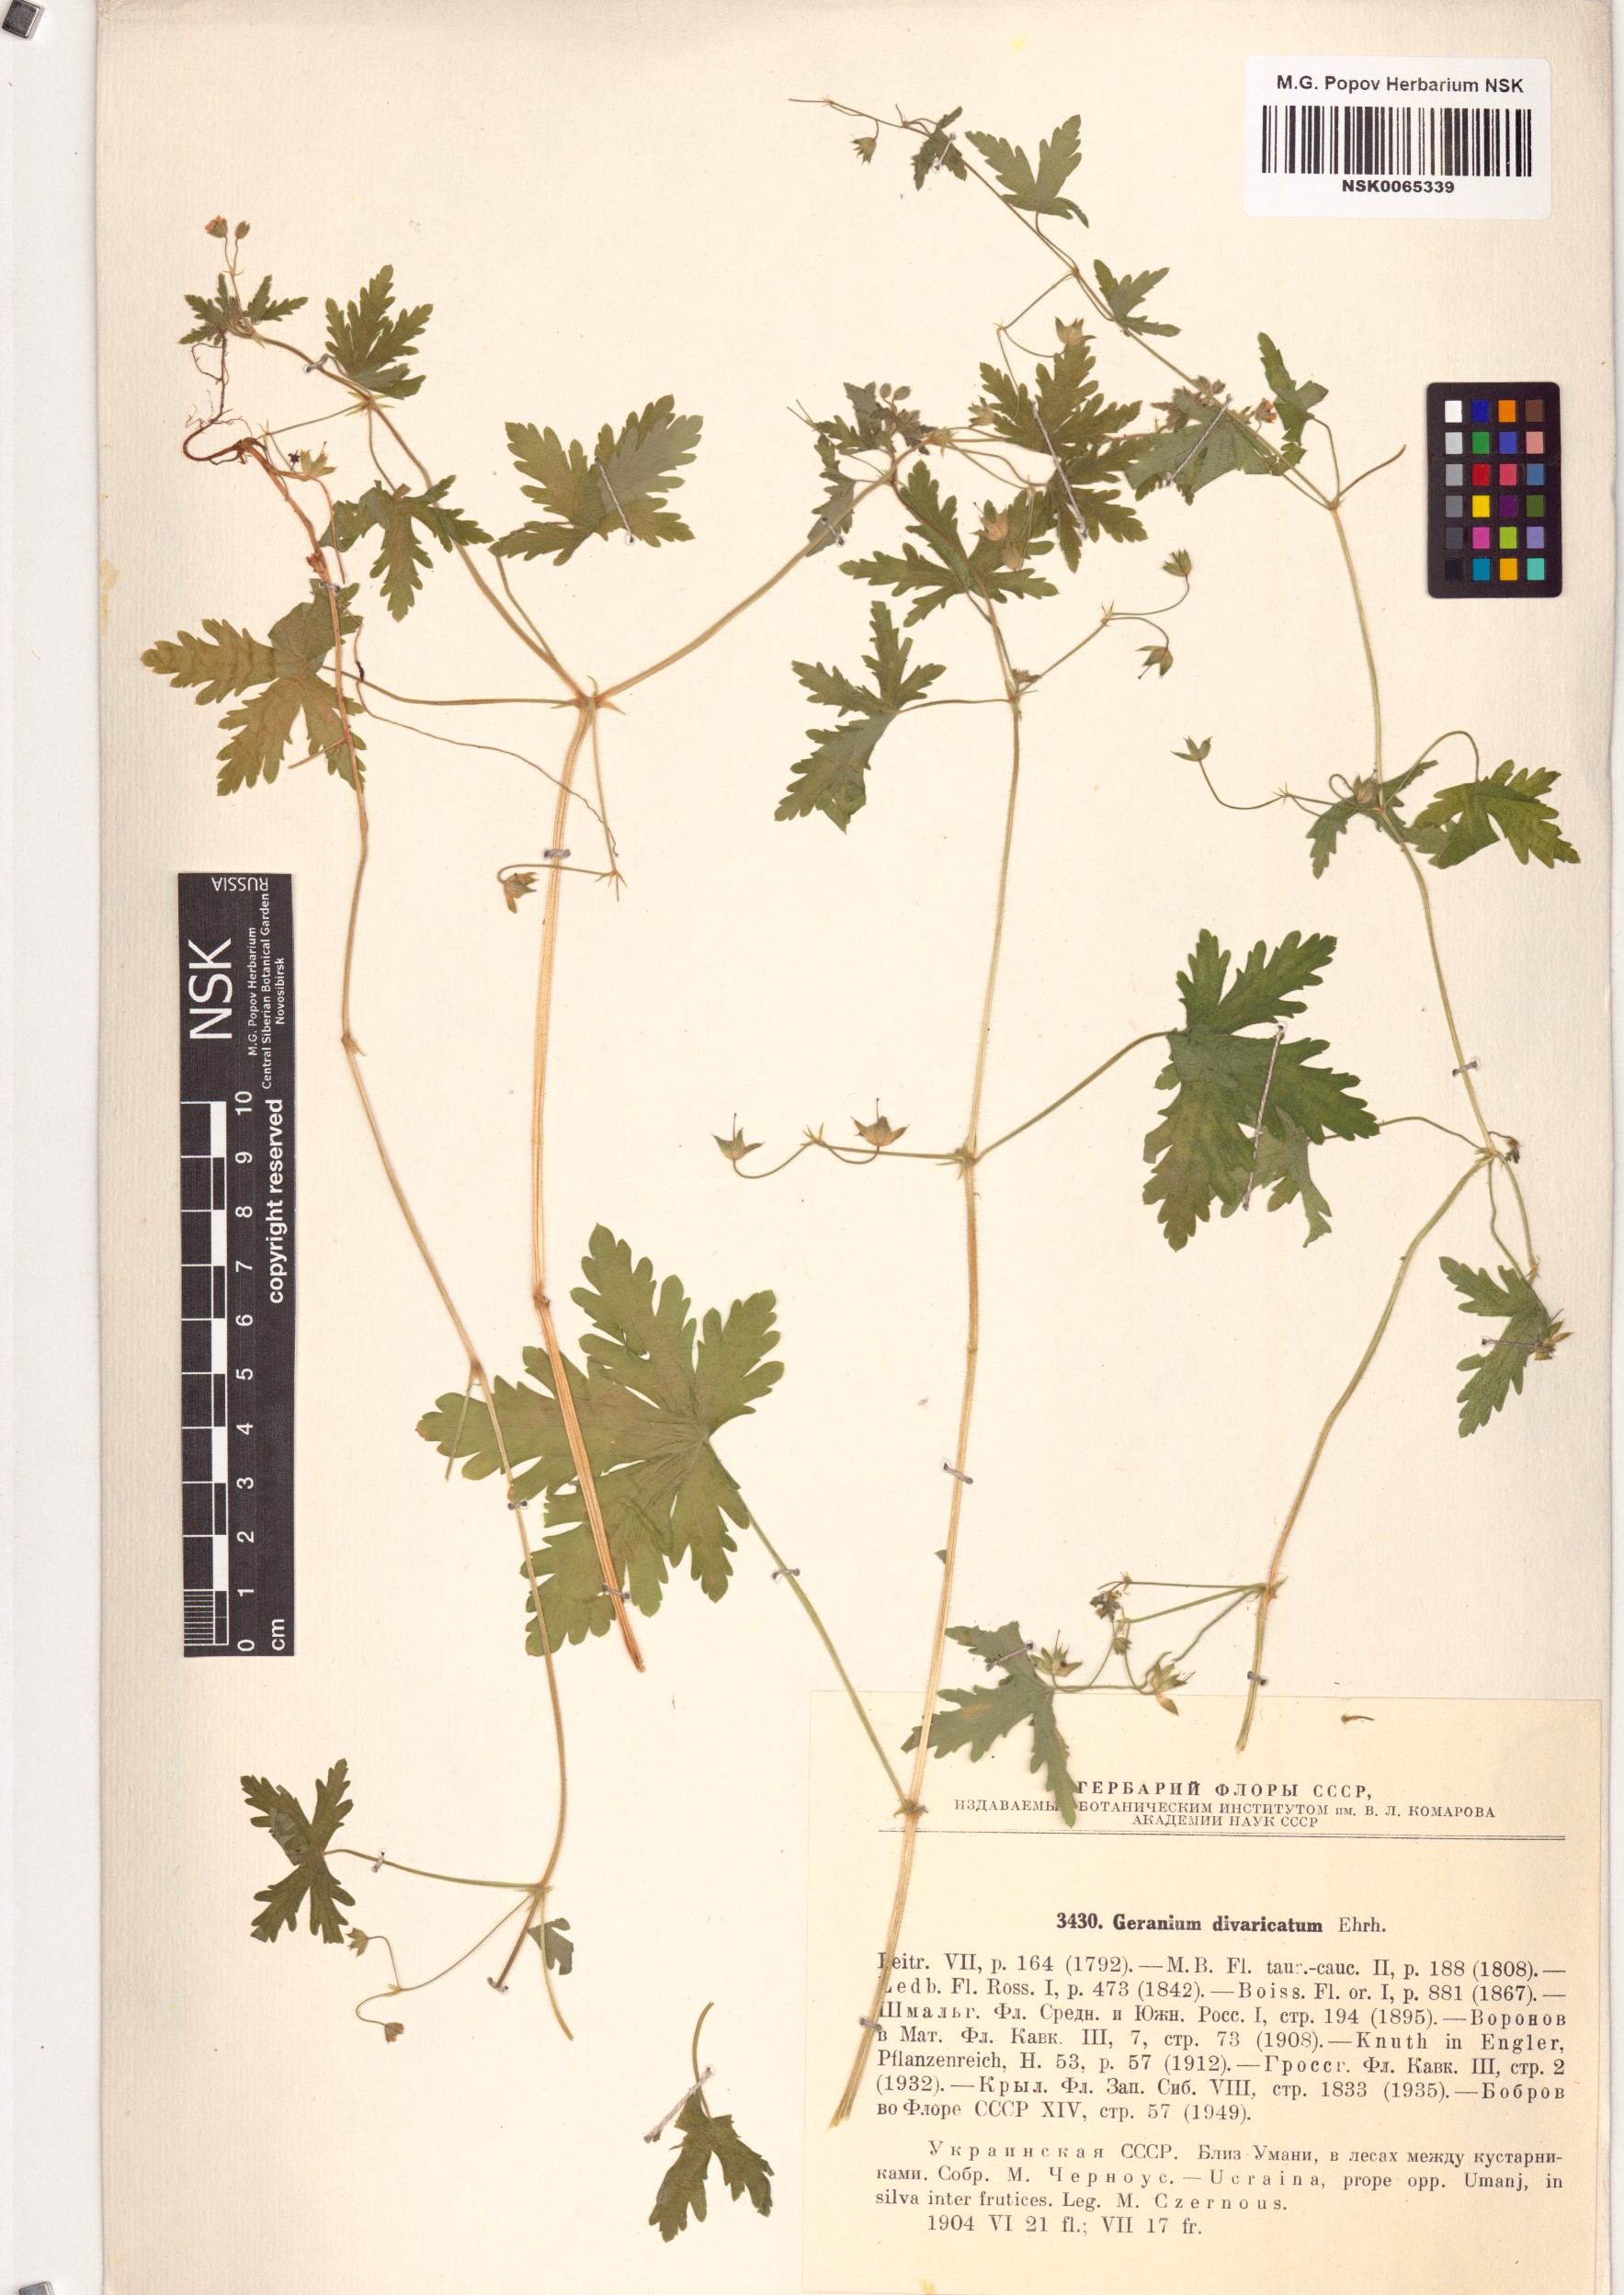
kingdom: Plantae
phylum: Tracheophyta
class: Magnoliopsida
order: Geraniales
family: Geraniaceae
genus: Geranium
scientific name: Geranium divaricatum
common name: Spreading crane's-bill
